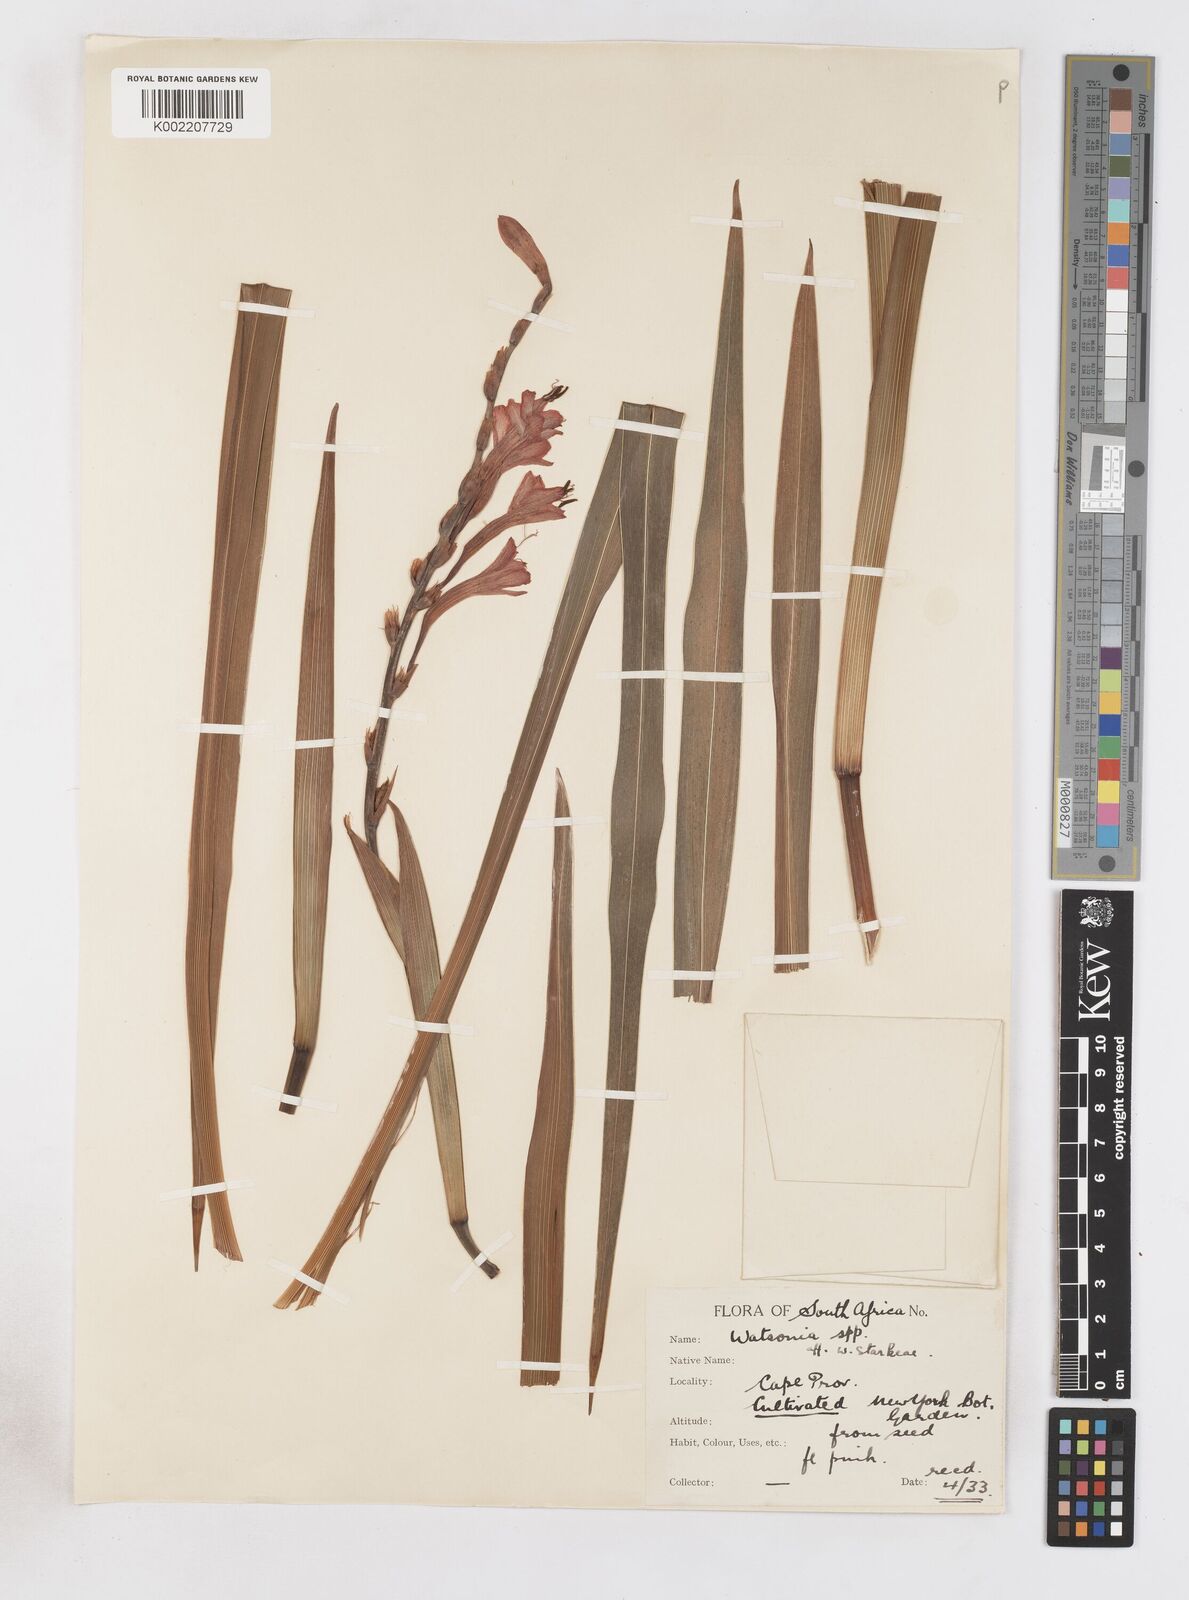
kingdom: Plantae
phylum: Tracheophyta
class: Liliopsida
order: Asparagales
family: Iridaceae
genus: Watsonia
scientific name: Watsonia
